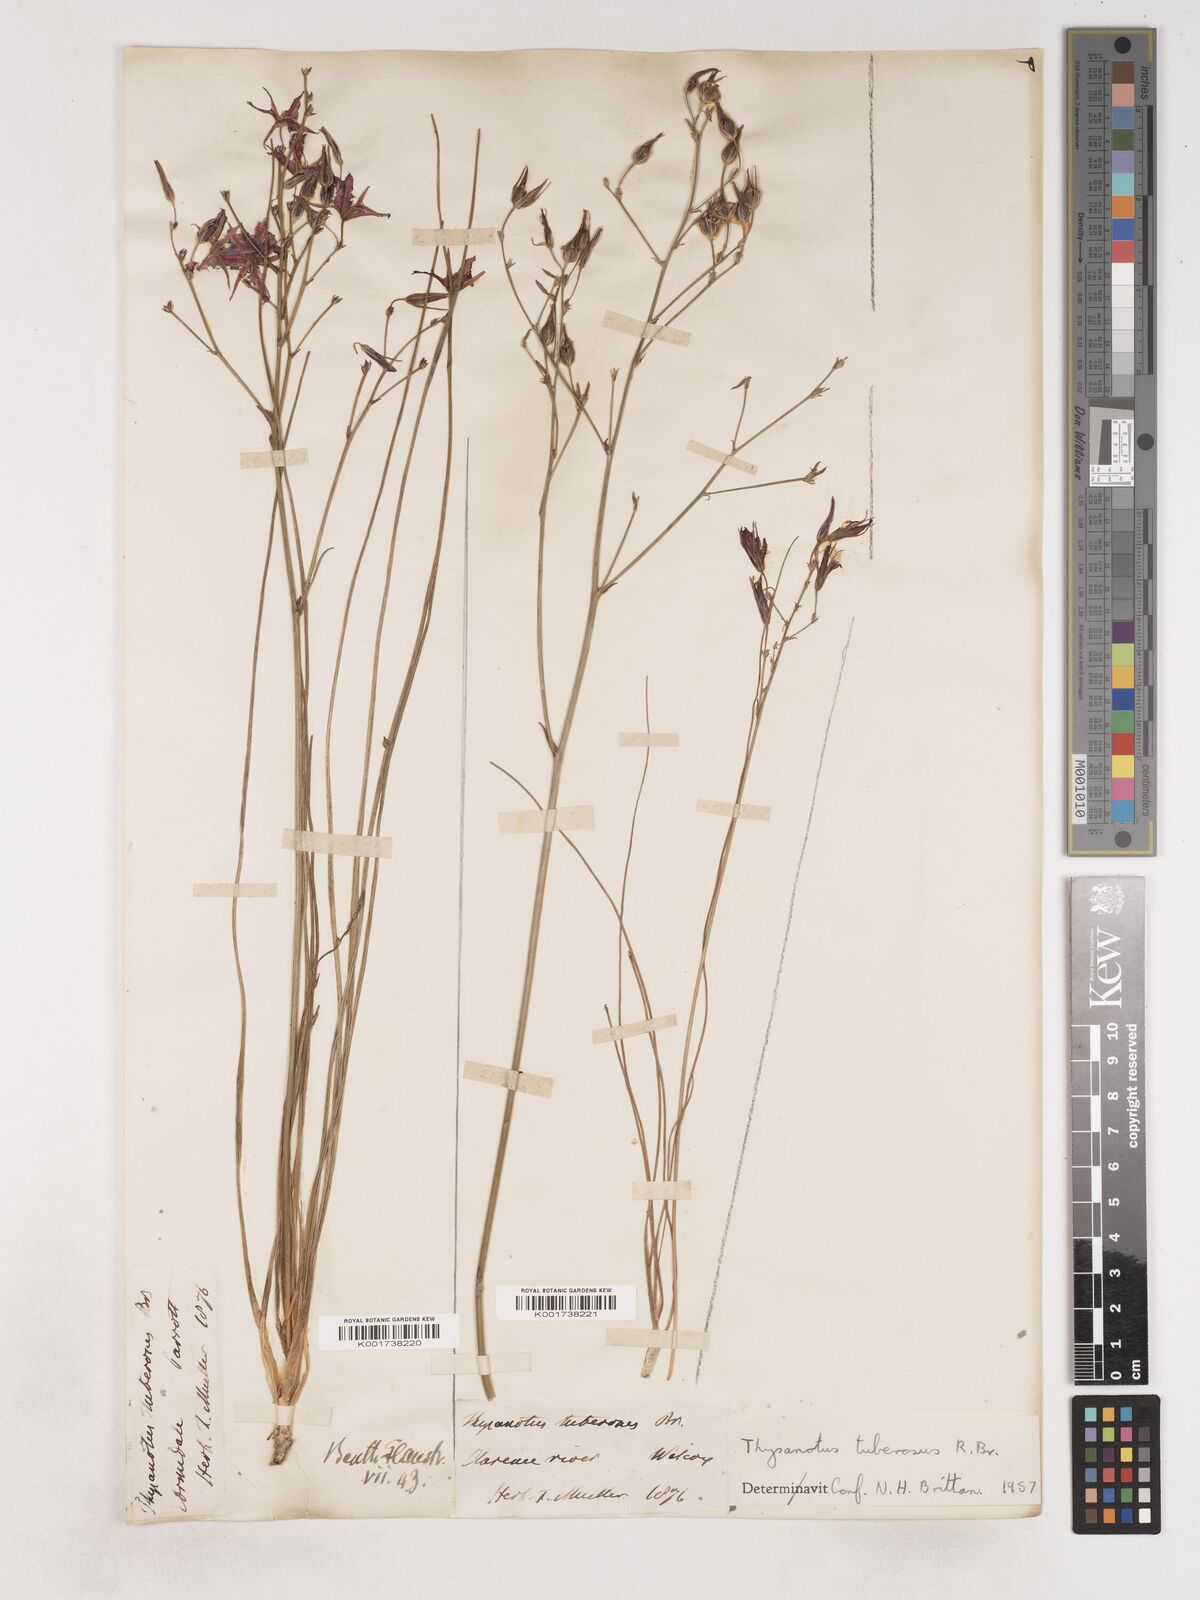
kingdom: Plantae
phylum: Tracheophyta
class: Liliopsida
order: Asparagales
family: Asparagaceae
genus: Thysanotus
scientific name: Thysanotus tuberosus
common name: Common fringed-lily
